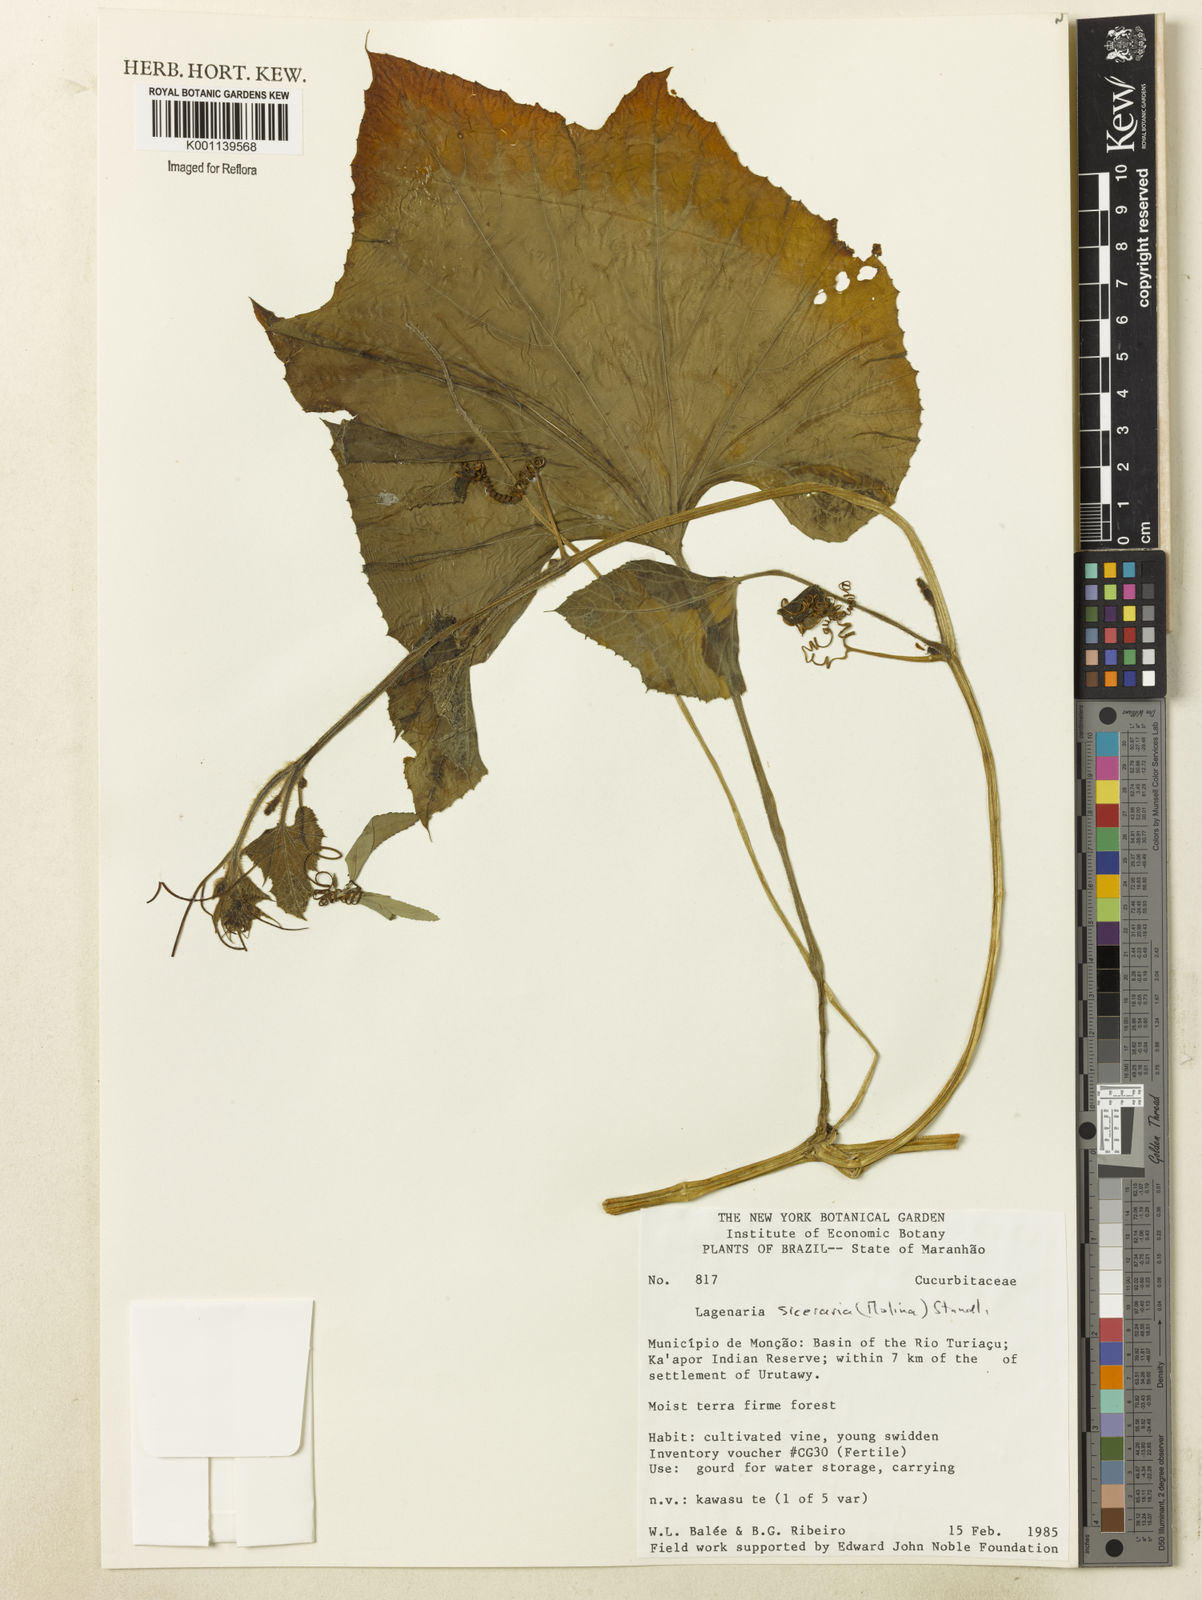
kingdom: Plantae
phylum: Tracheophyta
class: Magnoliopsida
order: Cucurbitales
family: Cucurbitaceae
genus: Lagenaria
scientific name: Lagenaria siceraria
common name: Bottle gourd
